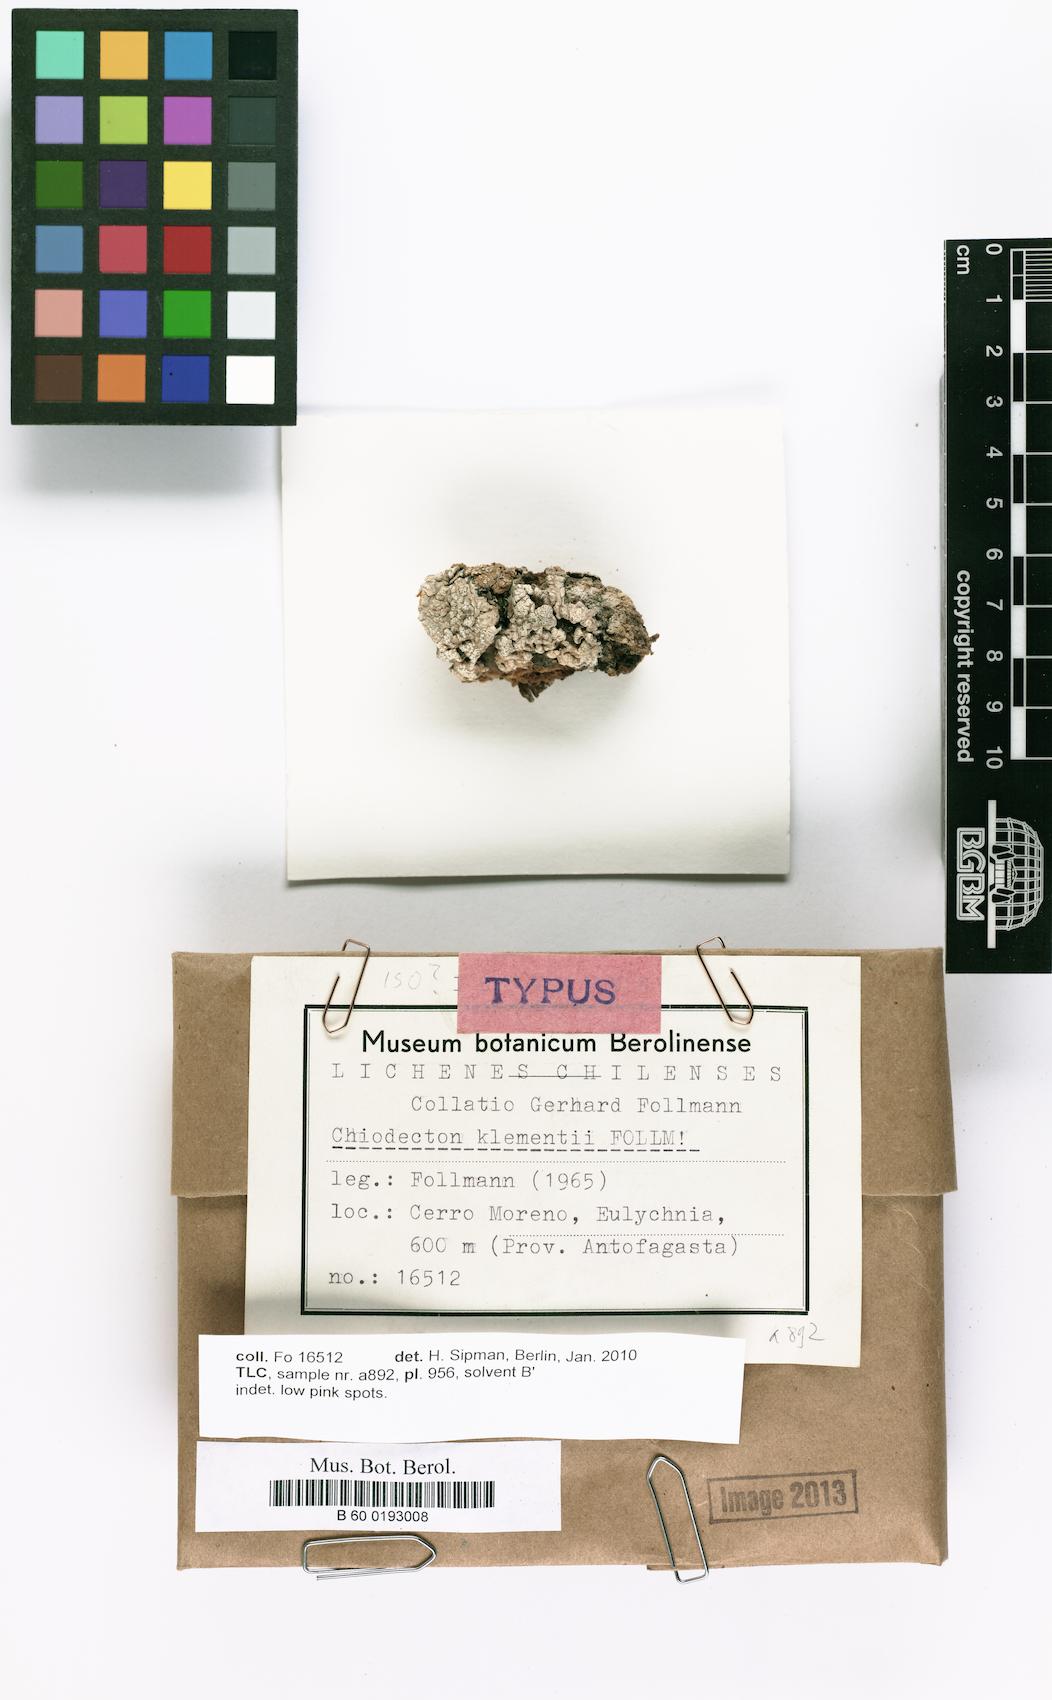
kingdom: Fungi
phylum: Ascomycota
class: Arthoniomycetes
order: Arthoniales
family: Roccellographaceae
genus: Fulvophyton
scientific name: Fulvophyton klementii
